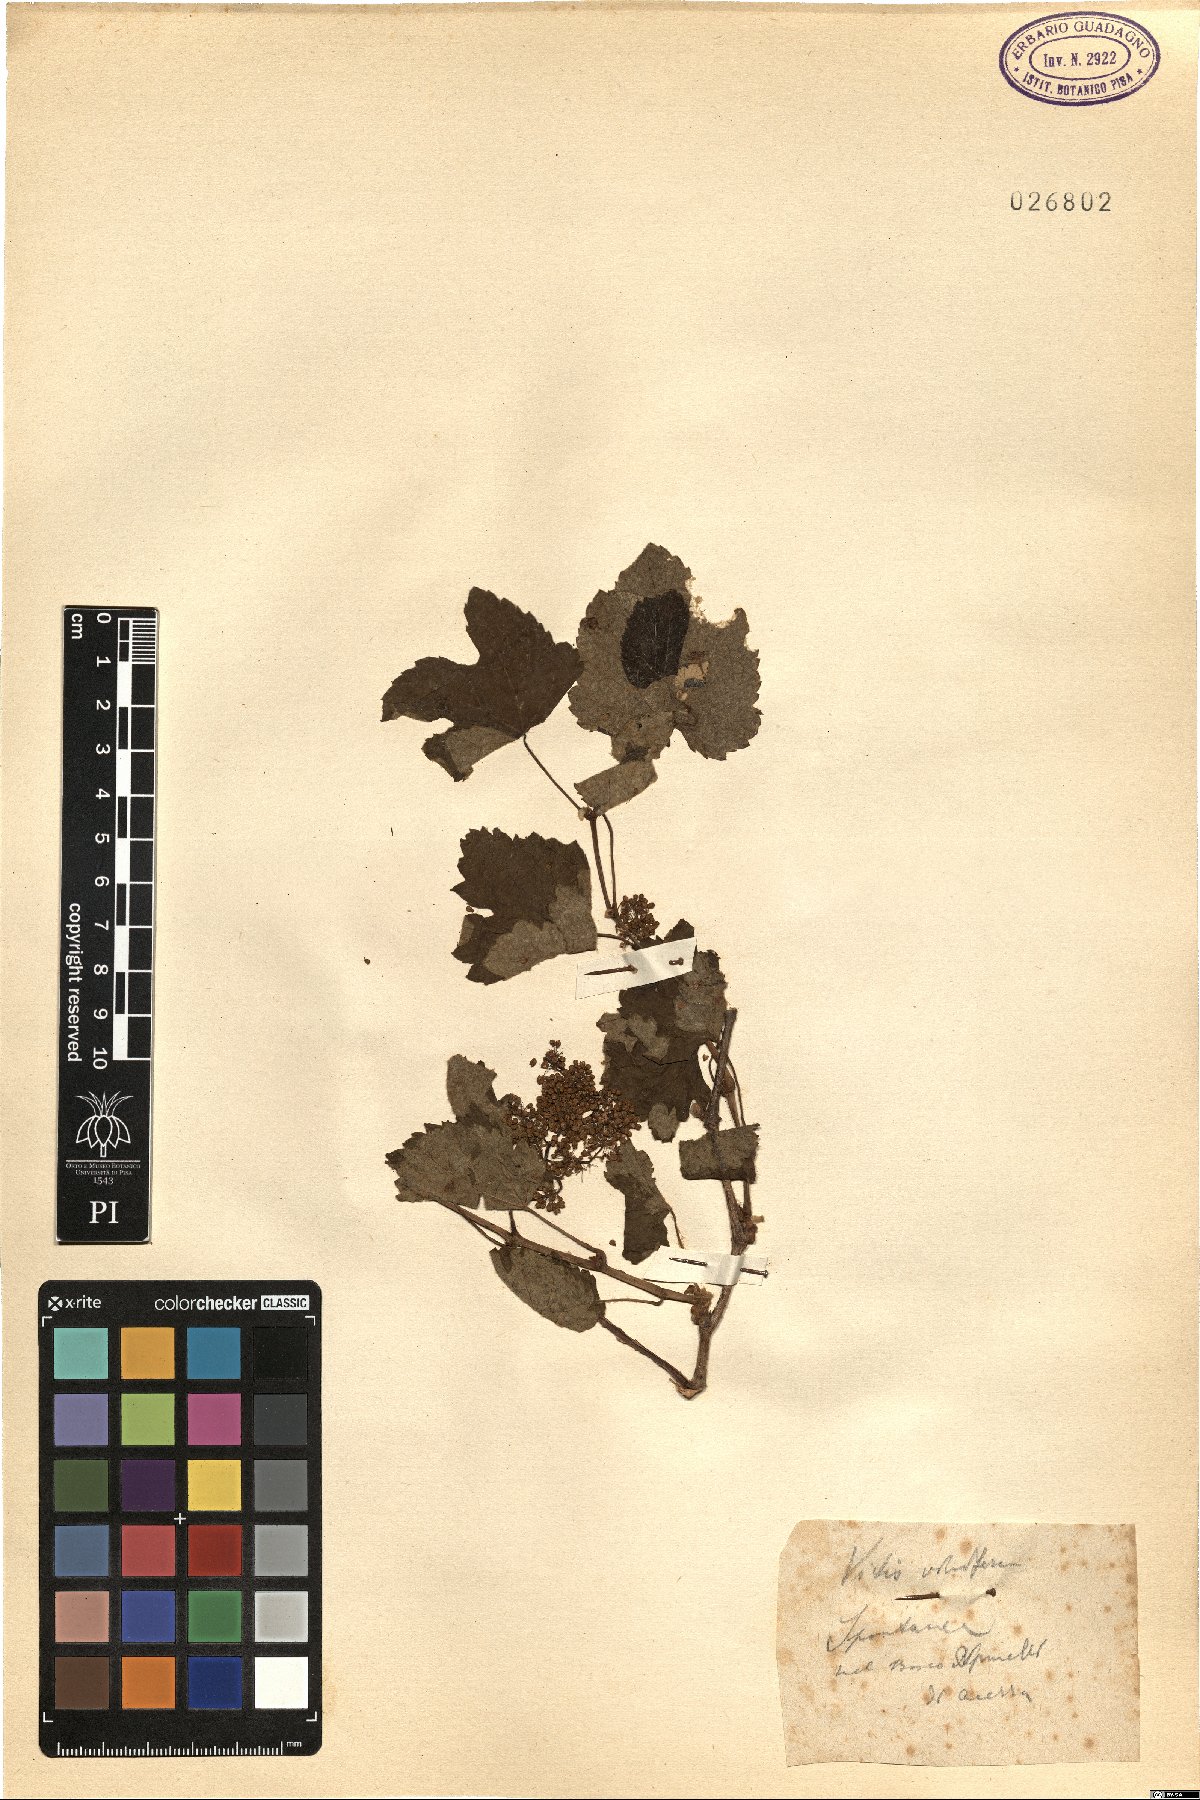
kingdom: Plantae
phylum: Tracheophyta
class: Magnoliopsida
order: Vitales
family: Vitaceae
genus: Vitis
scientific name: Vitis vinifera
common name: Grape-vine
